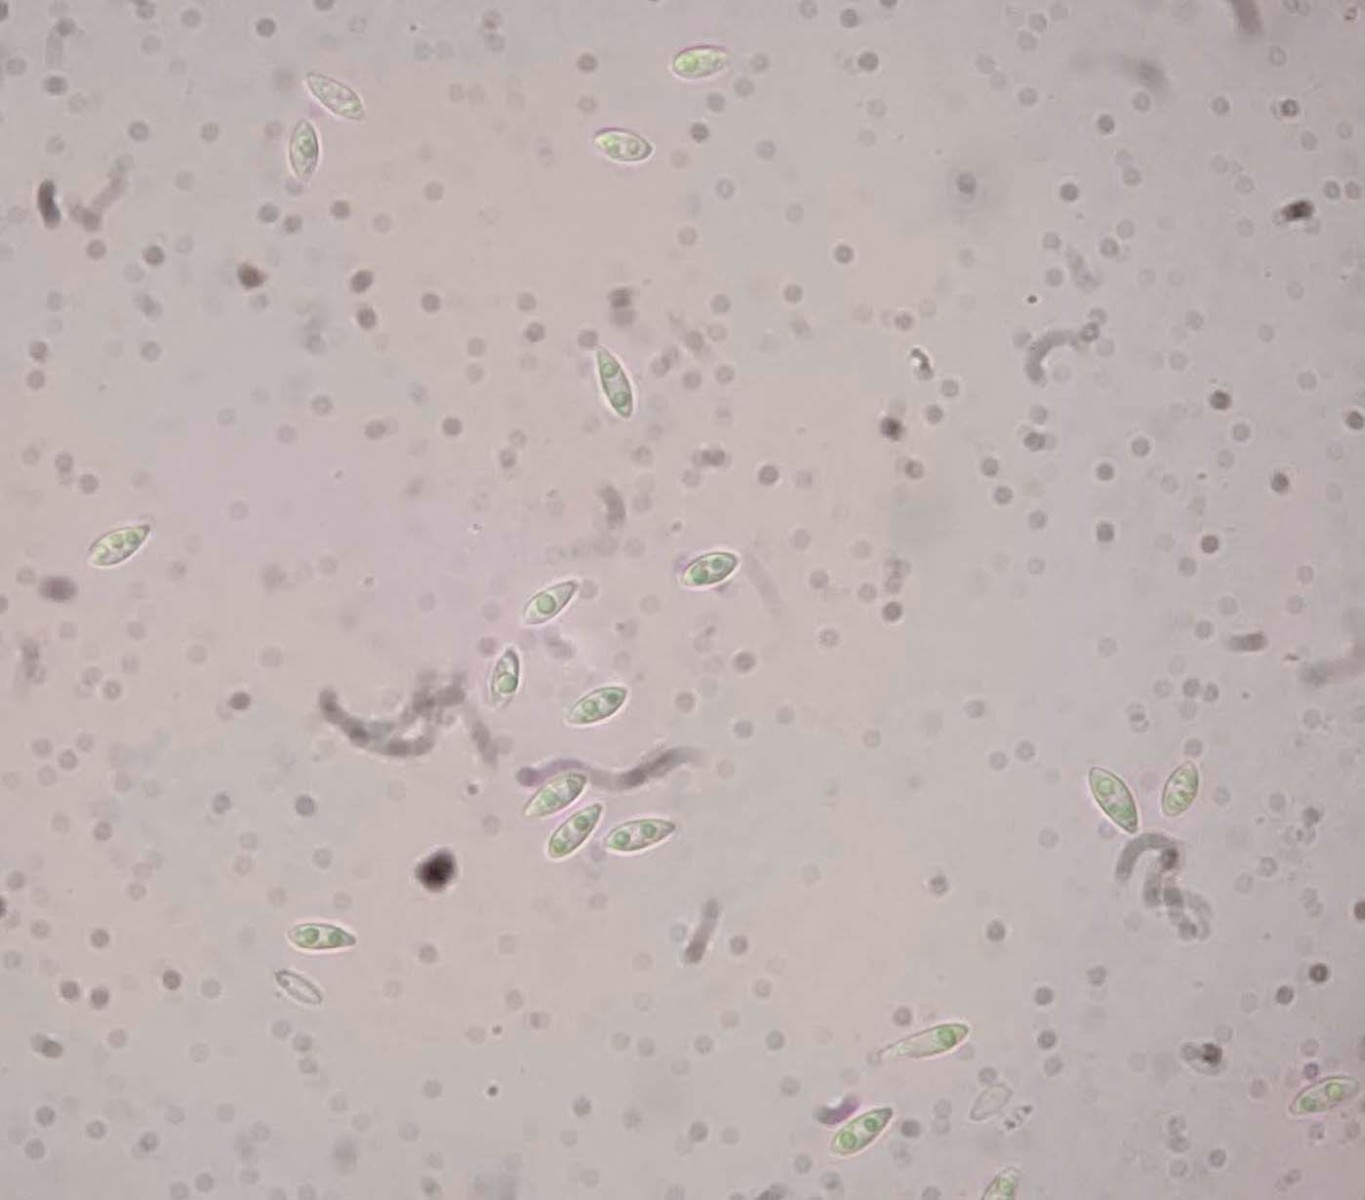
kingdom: Fungi
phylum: Ascomycota
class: Sordariomycetes
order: Diaporthales
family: Diaporthaceae
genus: Diaporthe
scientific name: Diaporthe stictica
